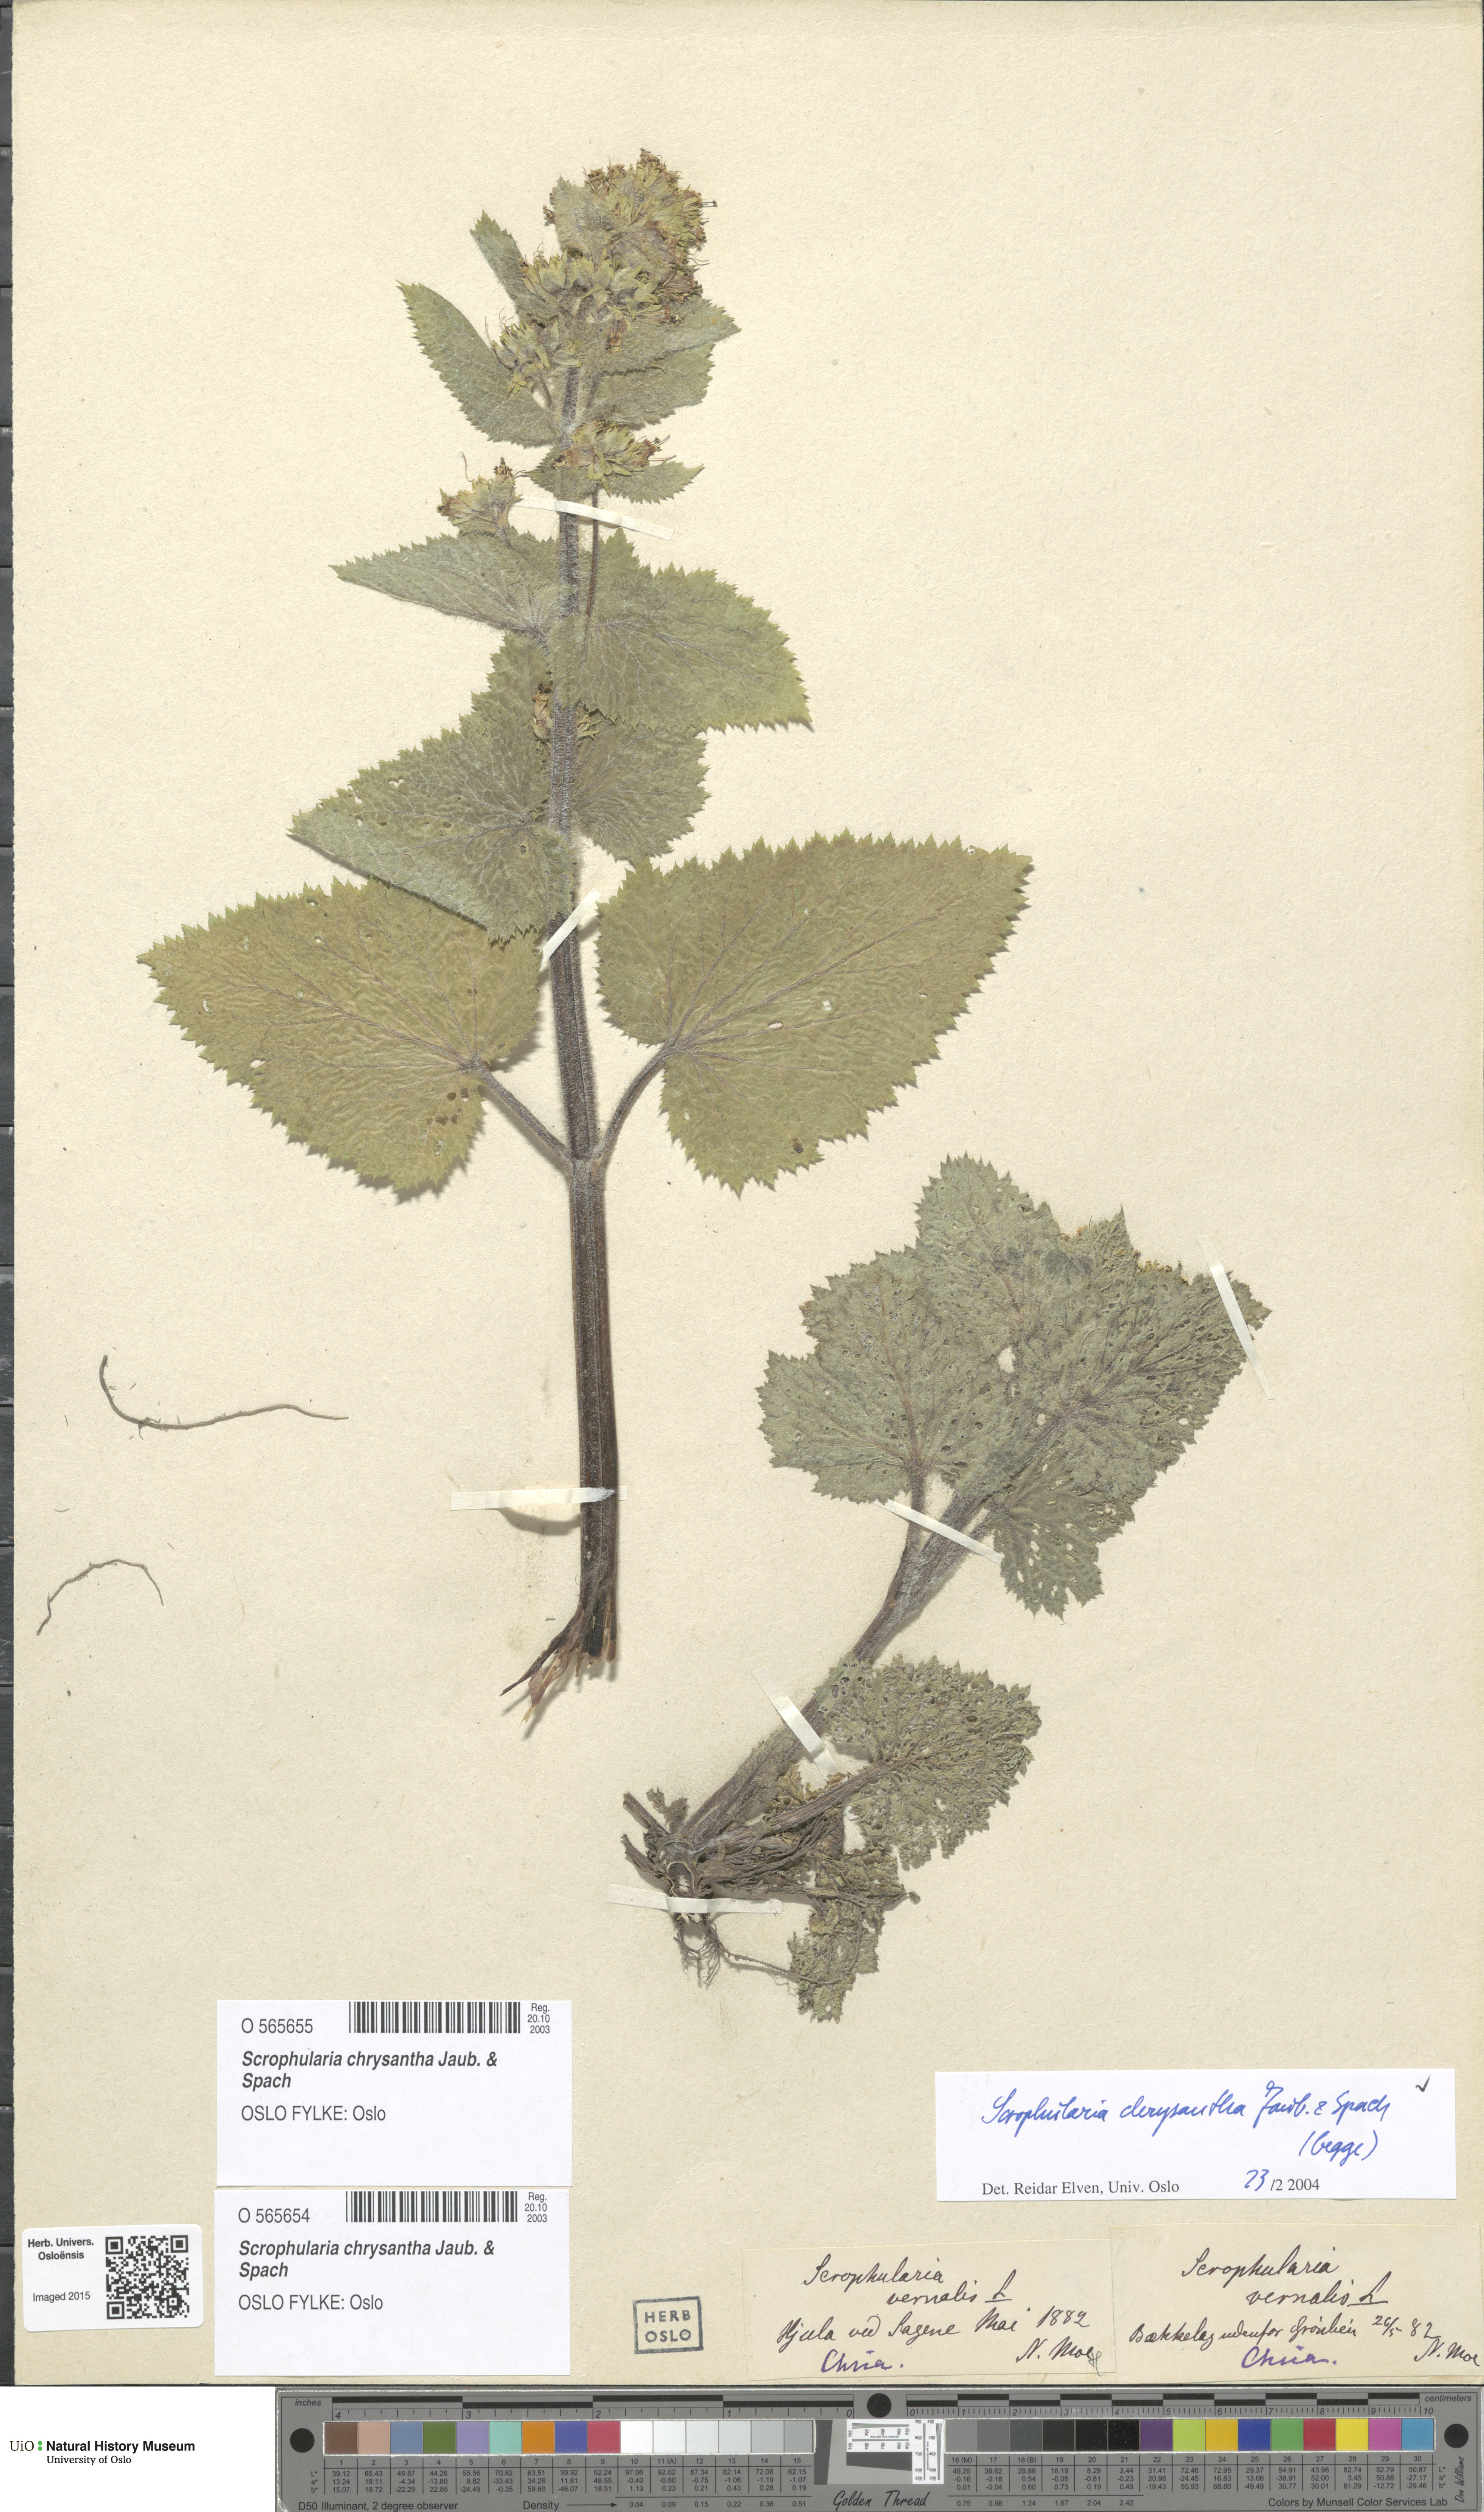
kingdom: Plantae
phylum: Tracheophyta
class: Magnoliopsida
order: Lamiales
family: Scrophulariaceae
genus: Scrophularia
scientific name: Scrophularia chrysantha
